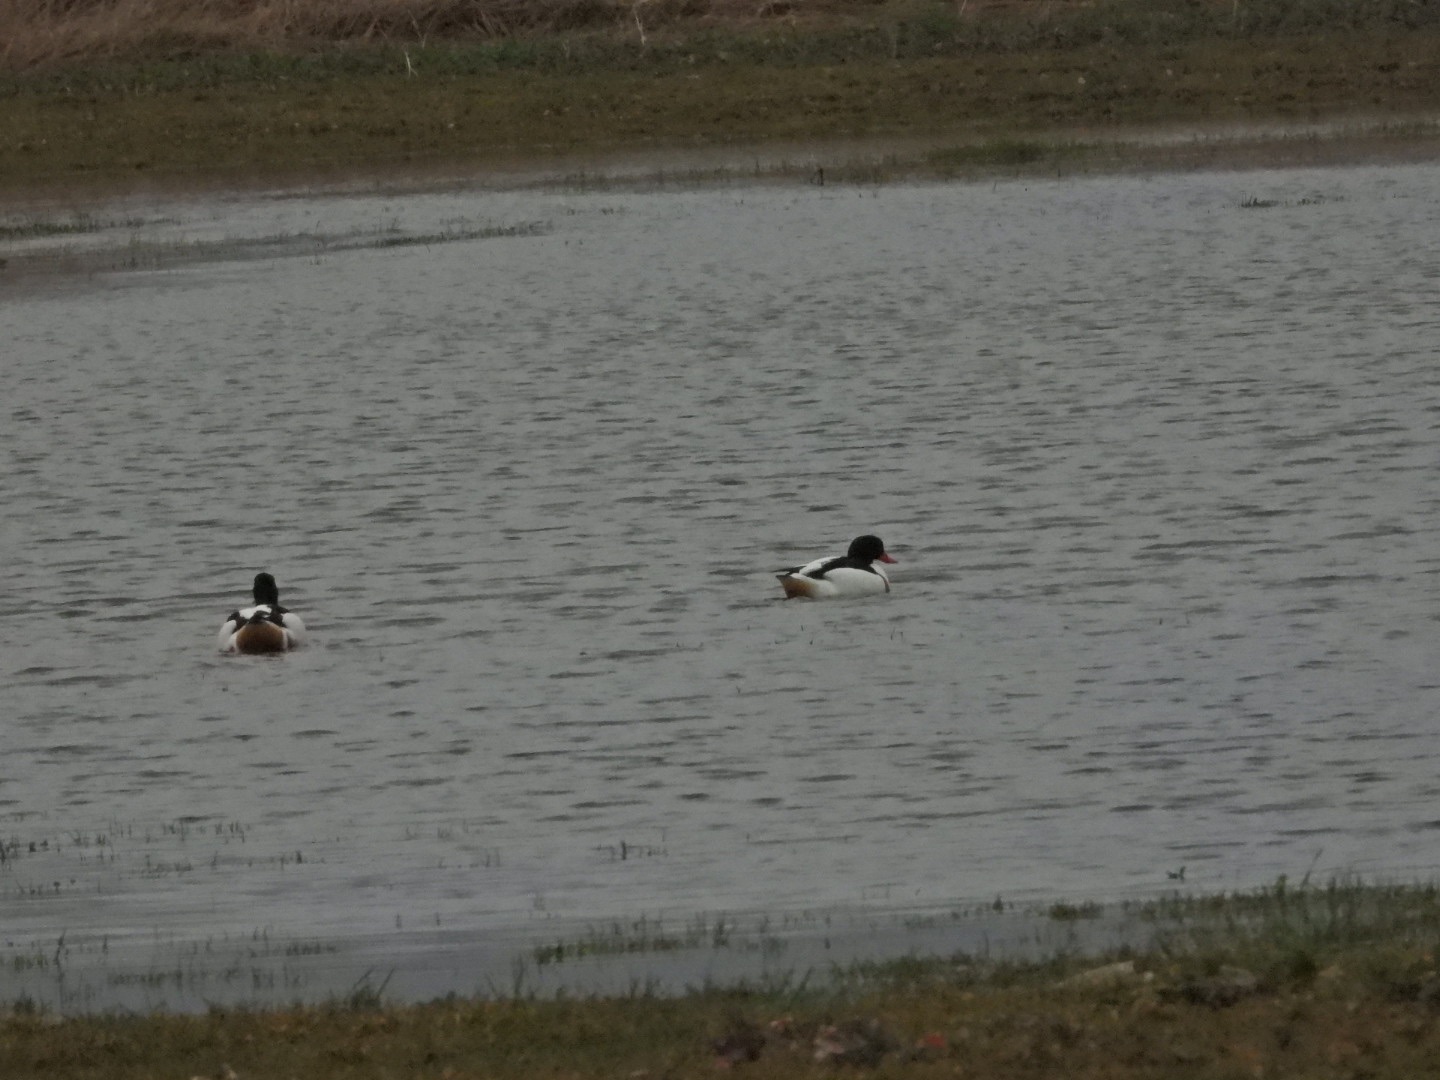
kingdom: Animalia
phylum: Chordata
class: Aves
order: Anseriformes
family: Anatidae
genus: Tadorna
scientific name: Tadorna tadorna
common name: Gravand
